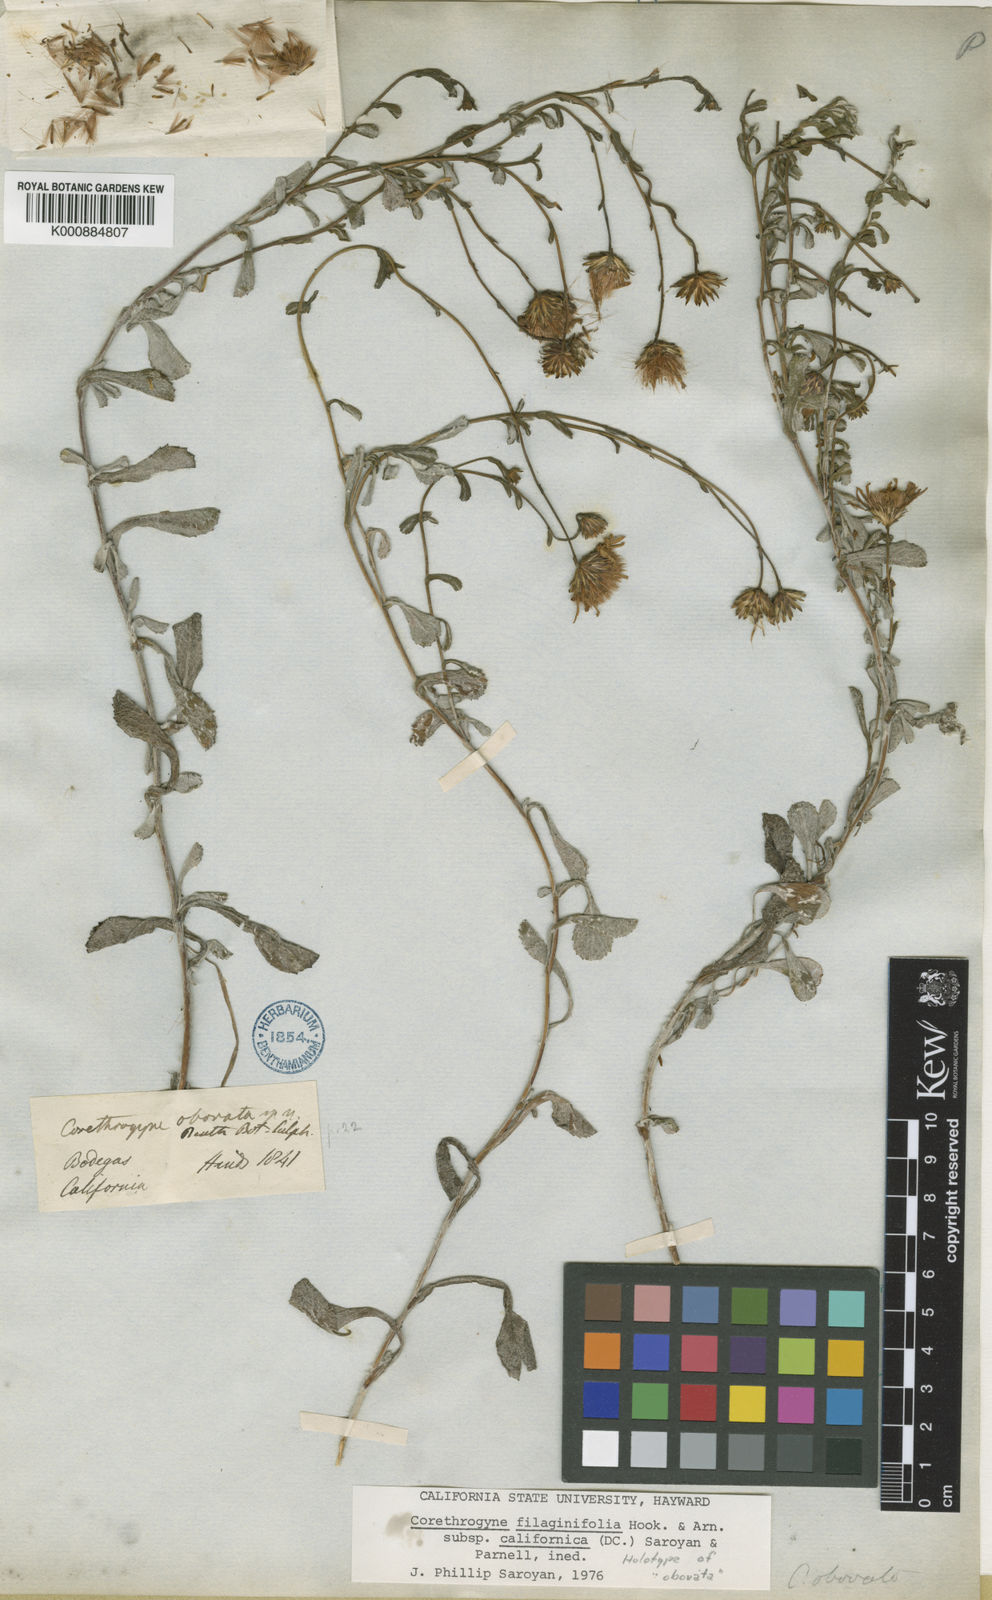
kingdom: Plantae
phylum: Tracheophyta
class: Magnoliopsida
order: Asterales
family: Asteraceae
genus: Corethrogyne
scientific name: Corethrogyne filaginifolia
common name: Sand-aster
